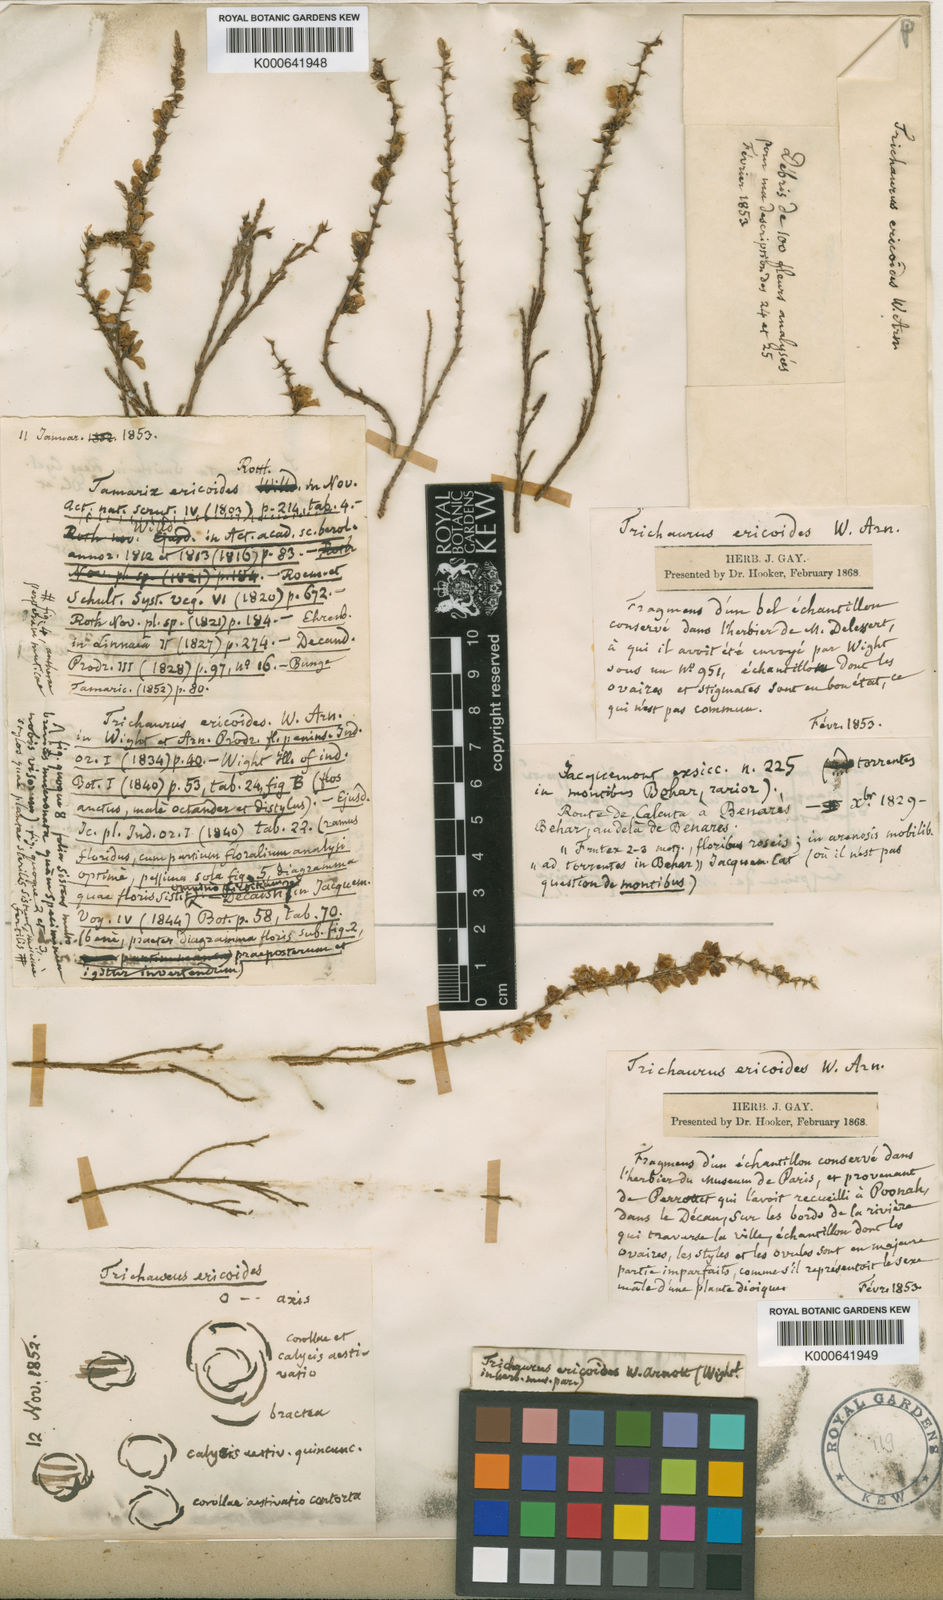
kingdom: Plantae
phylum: Tracheophyta
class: Magnoliopsida
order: Caryophyllales
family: Tamaricaceae
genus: Tamarix
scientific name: Tamarix ericoides
